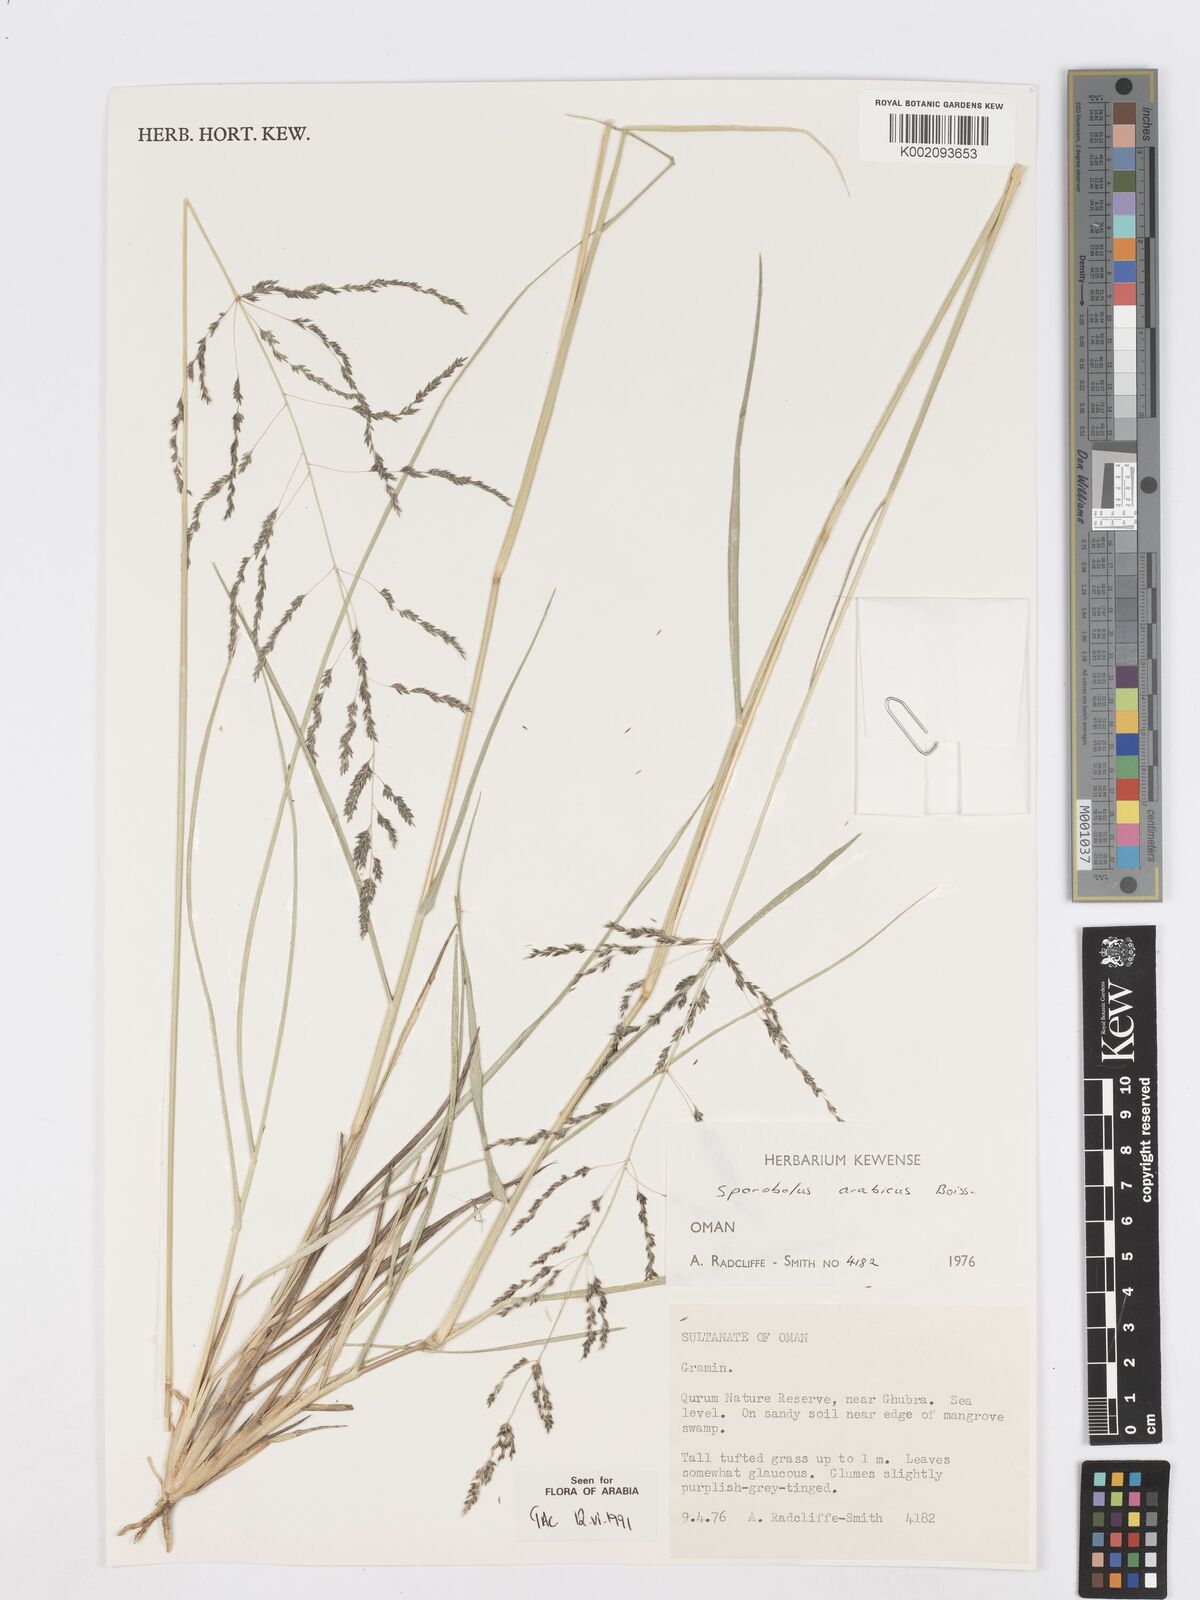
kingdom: Plantae
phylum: Tracheophyta
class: Liliopsida
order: Poales
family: Poaceae
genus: Sporobolus
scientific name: Sporobolus ioclados
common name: Pan dropseed
